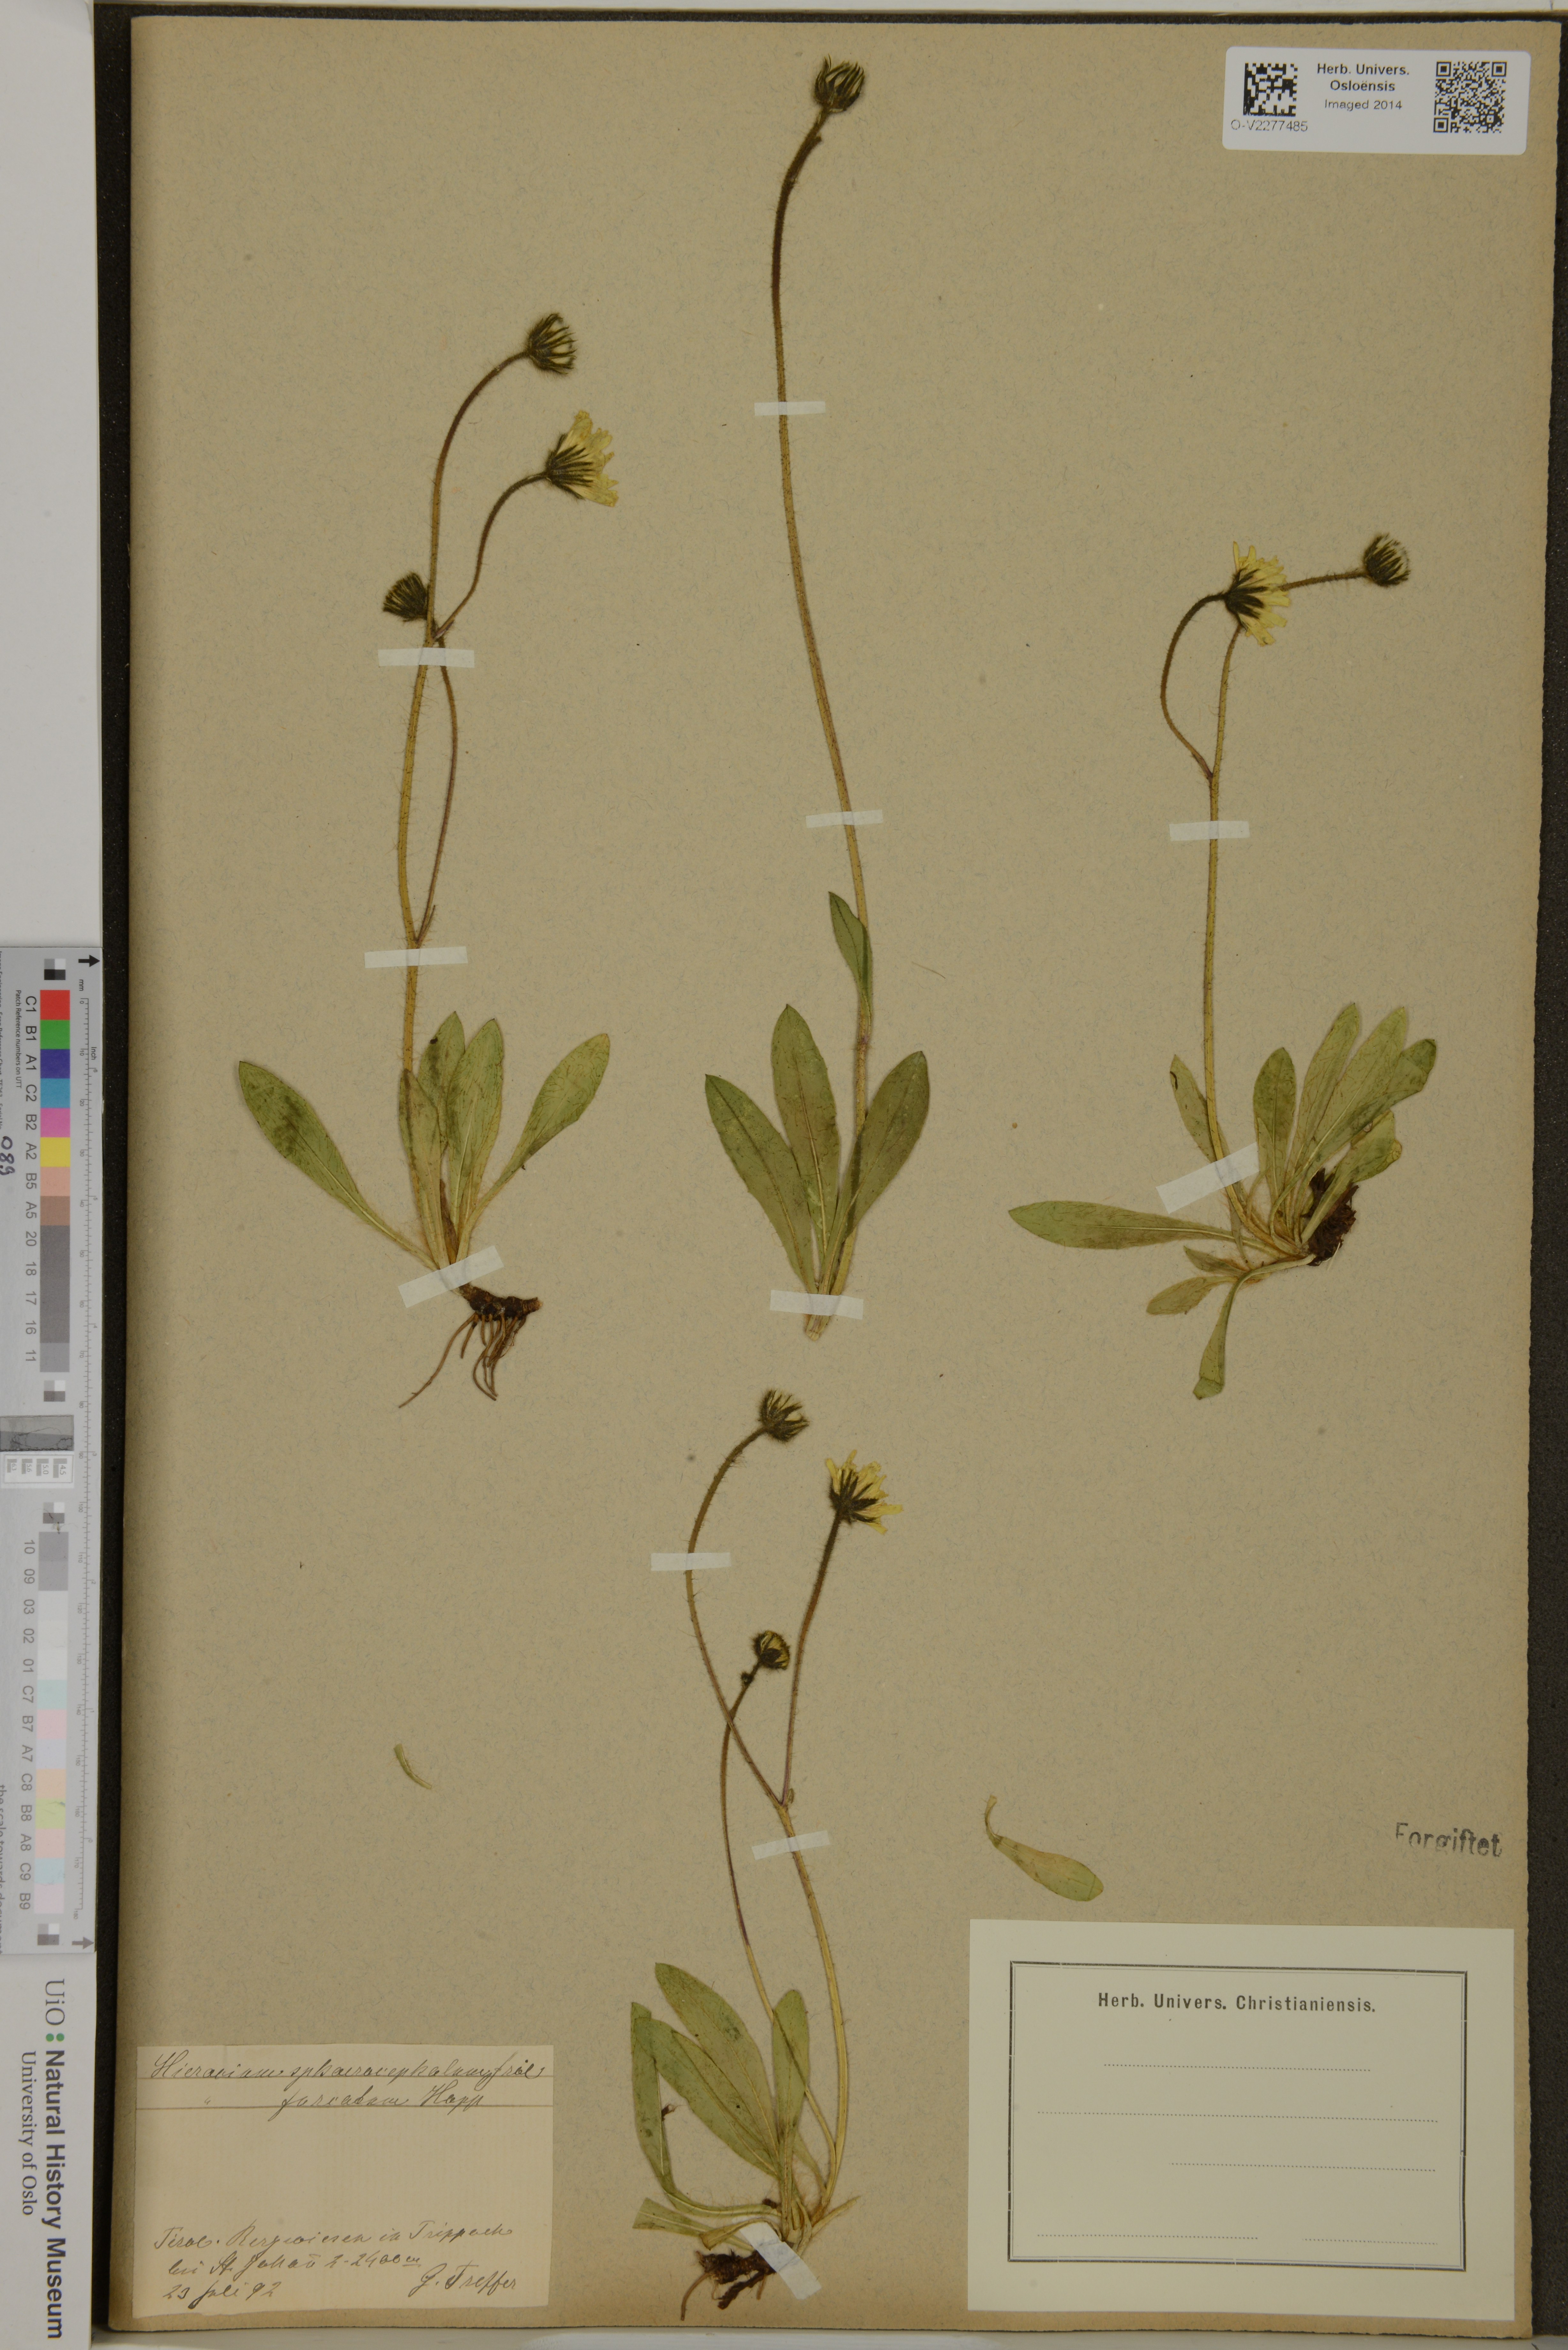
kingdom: Plantae
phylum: Tracheophyta
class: Magnoliopsida
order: Asterales
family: Asteraceae
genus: Pilosella
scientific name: Pilosella acutifolia
